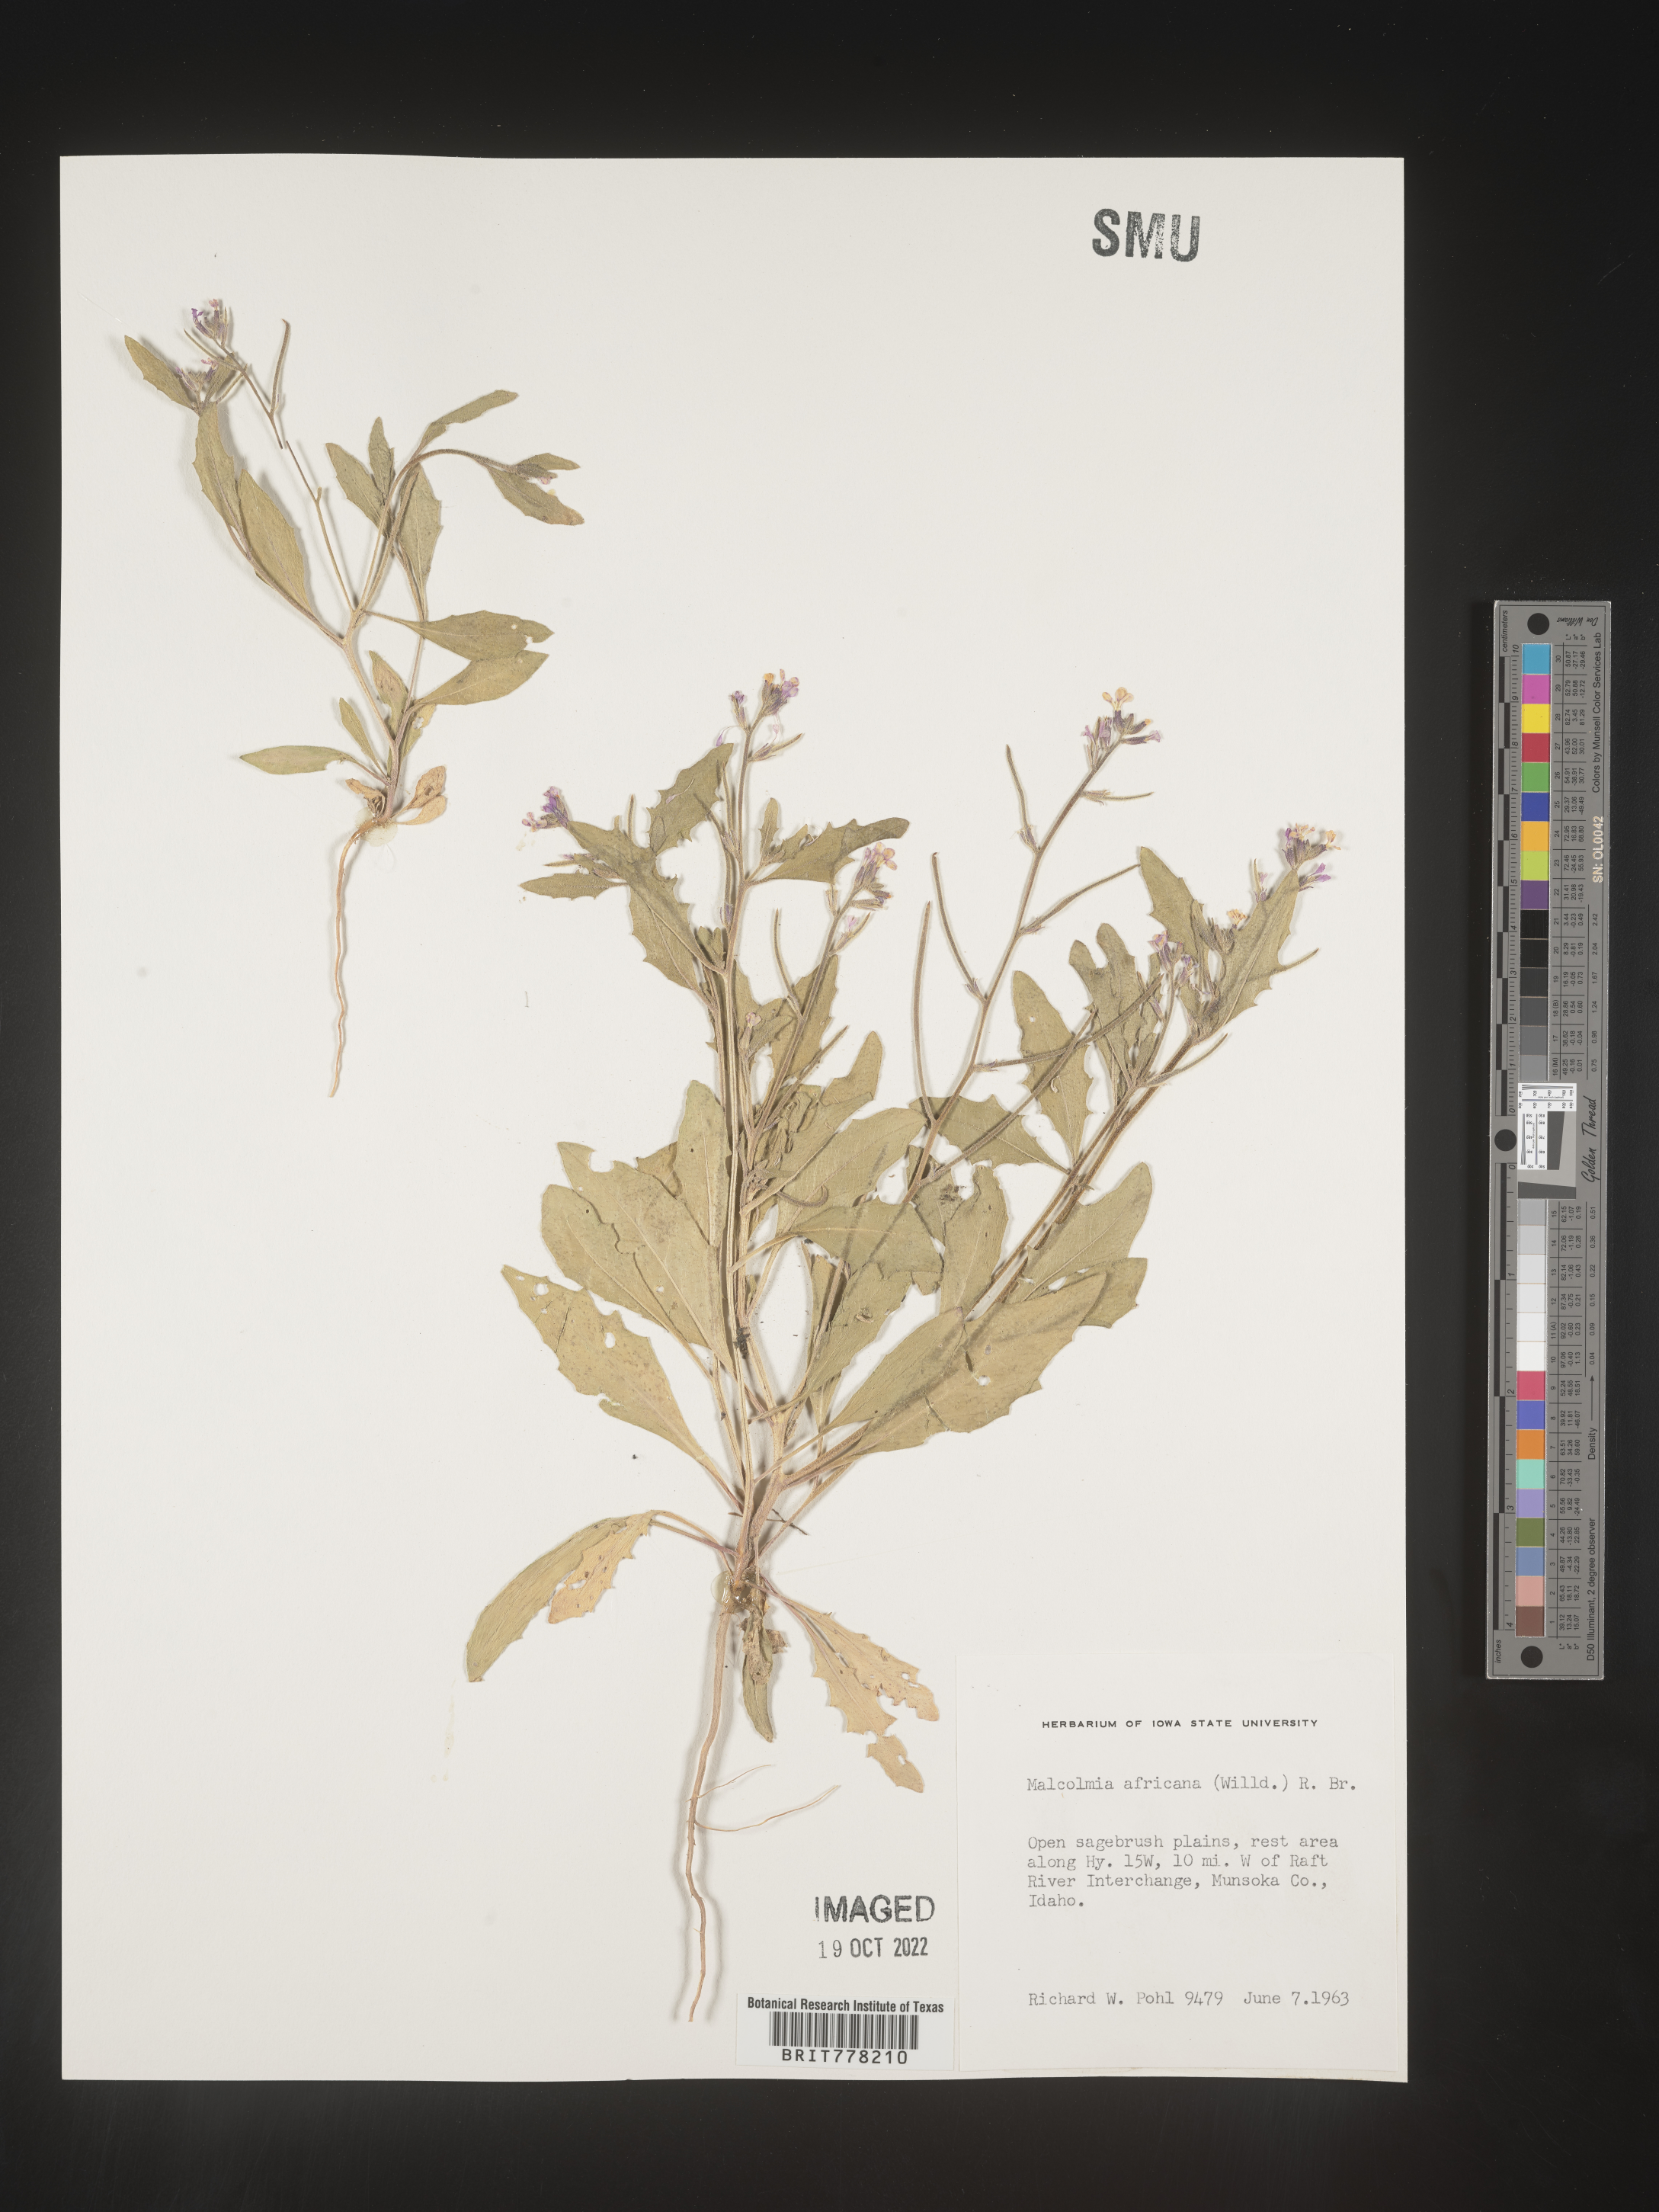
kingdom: Plantae
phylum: Tracheophyta
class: Magnoliopsida
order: Brassicales
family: Brassicaceae
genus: Malcolmia
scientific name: Malcolmia
